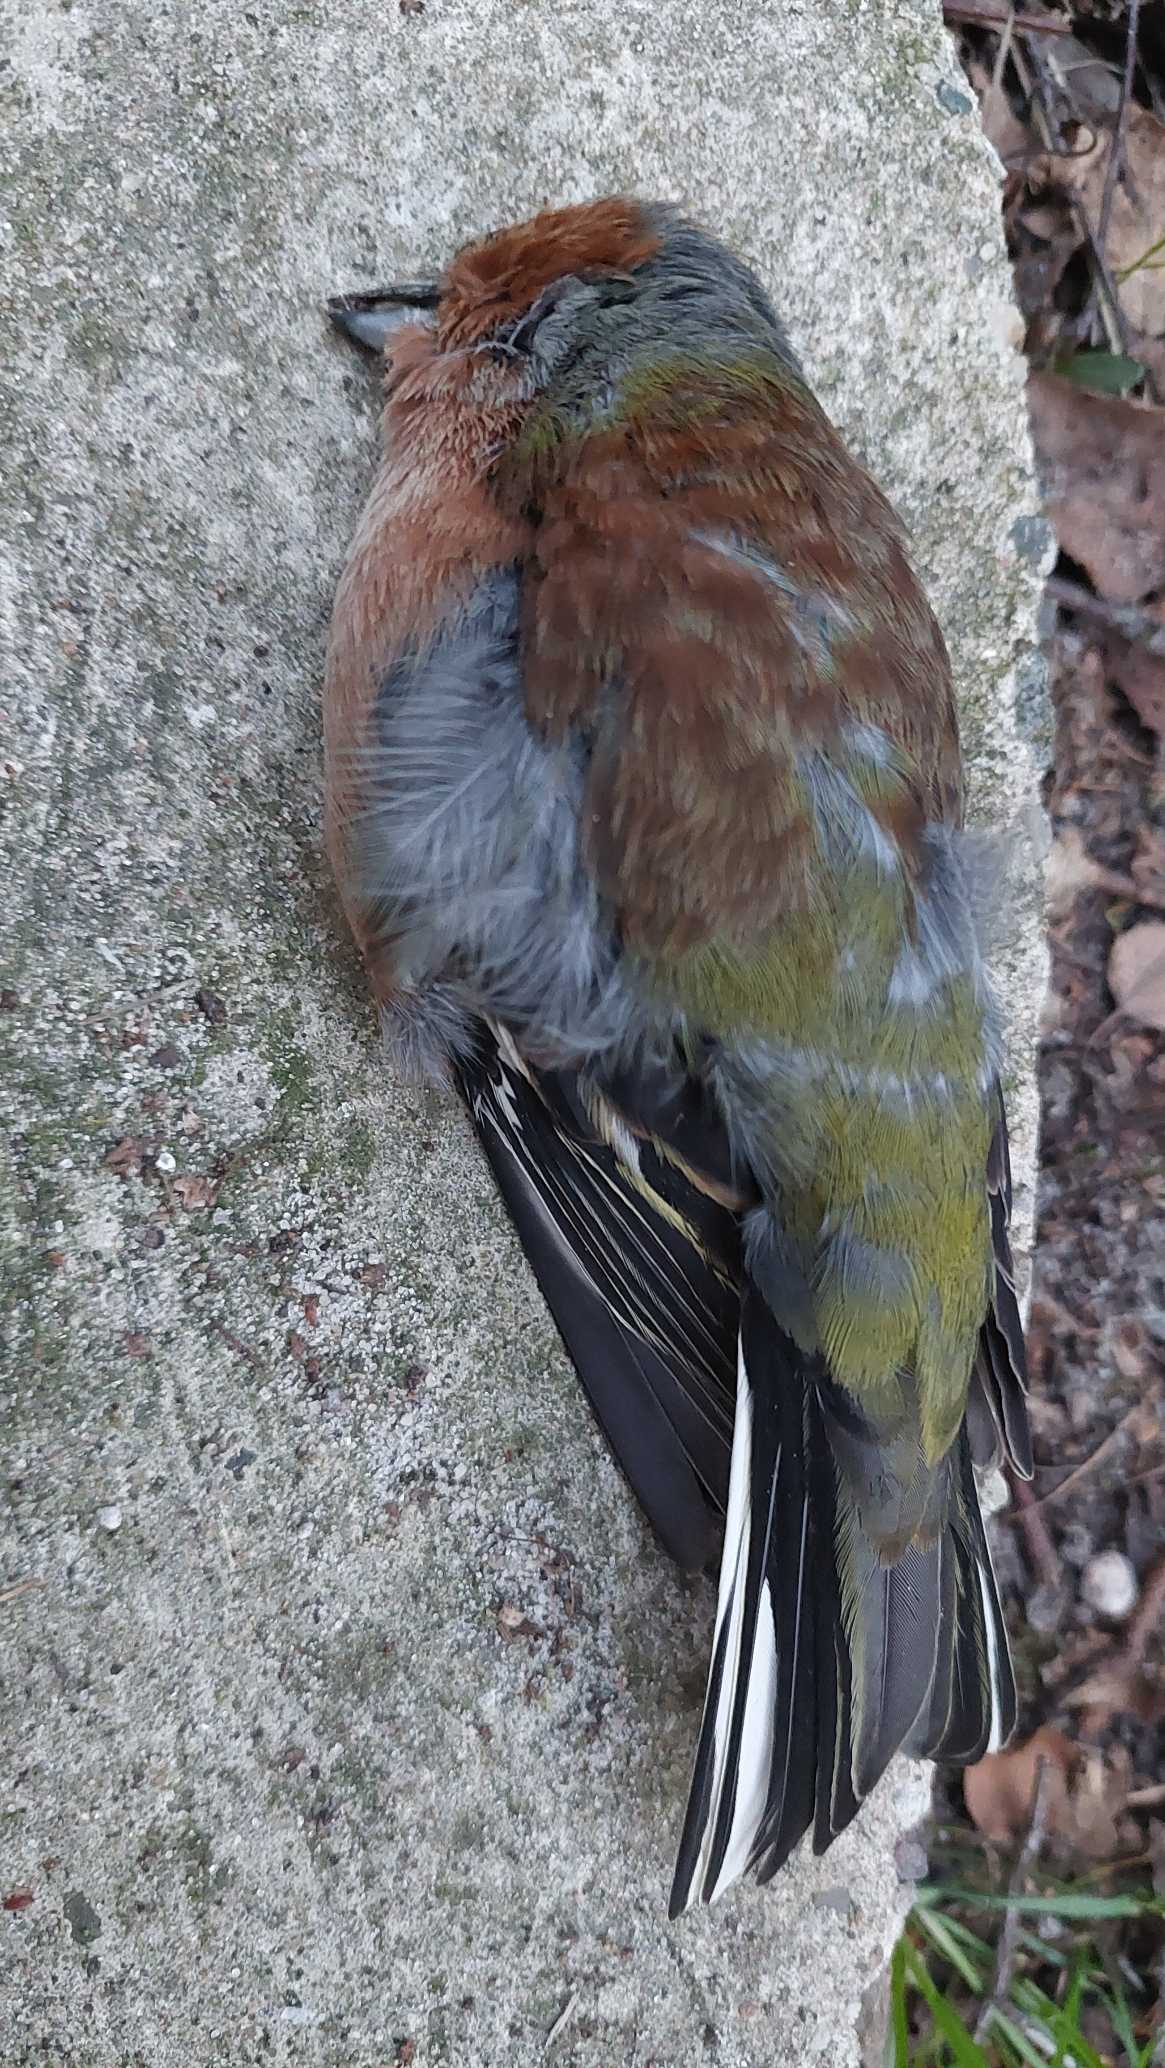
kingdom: Animalia
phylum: Chordata
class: Aves
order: Passeriformes
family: Fringillidae
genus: Fringilla
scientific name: Fringilla coelebs
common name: Bogfinke
